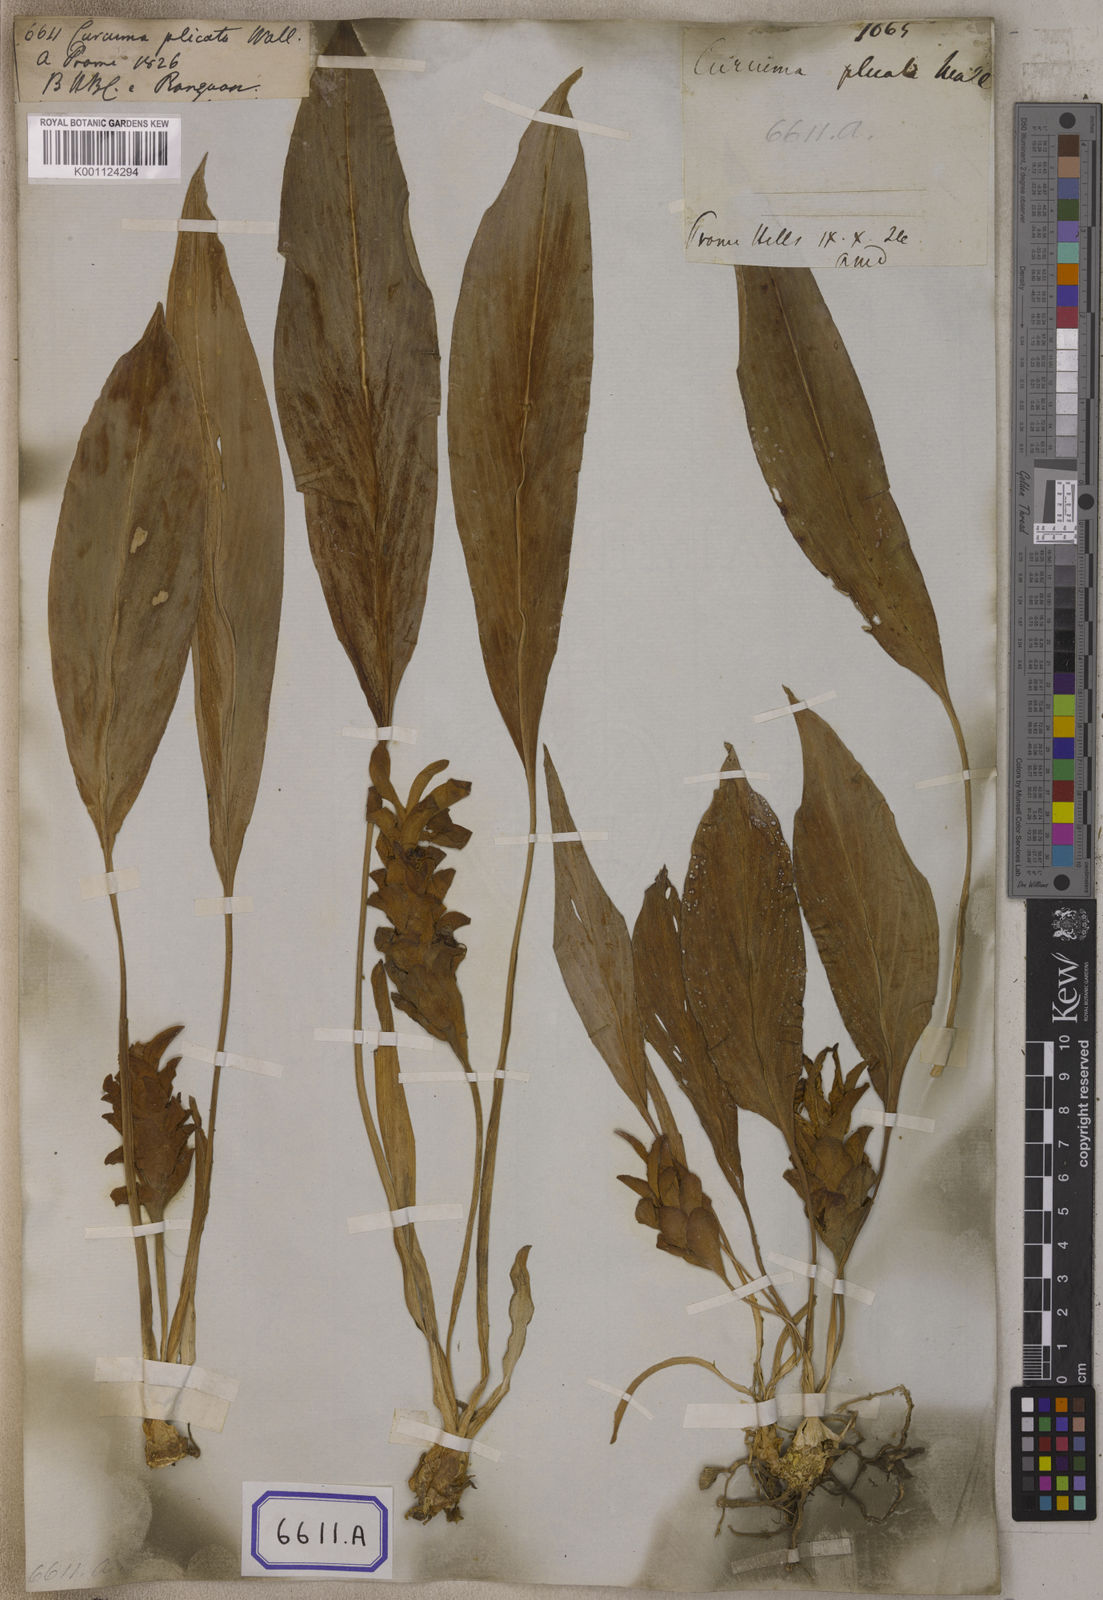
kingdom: Plantae
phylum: Tracheophyta
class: Liliopsida
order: Zingiberales
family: Zingiberaceae
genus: Curcuma
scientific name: Curcuma
